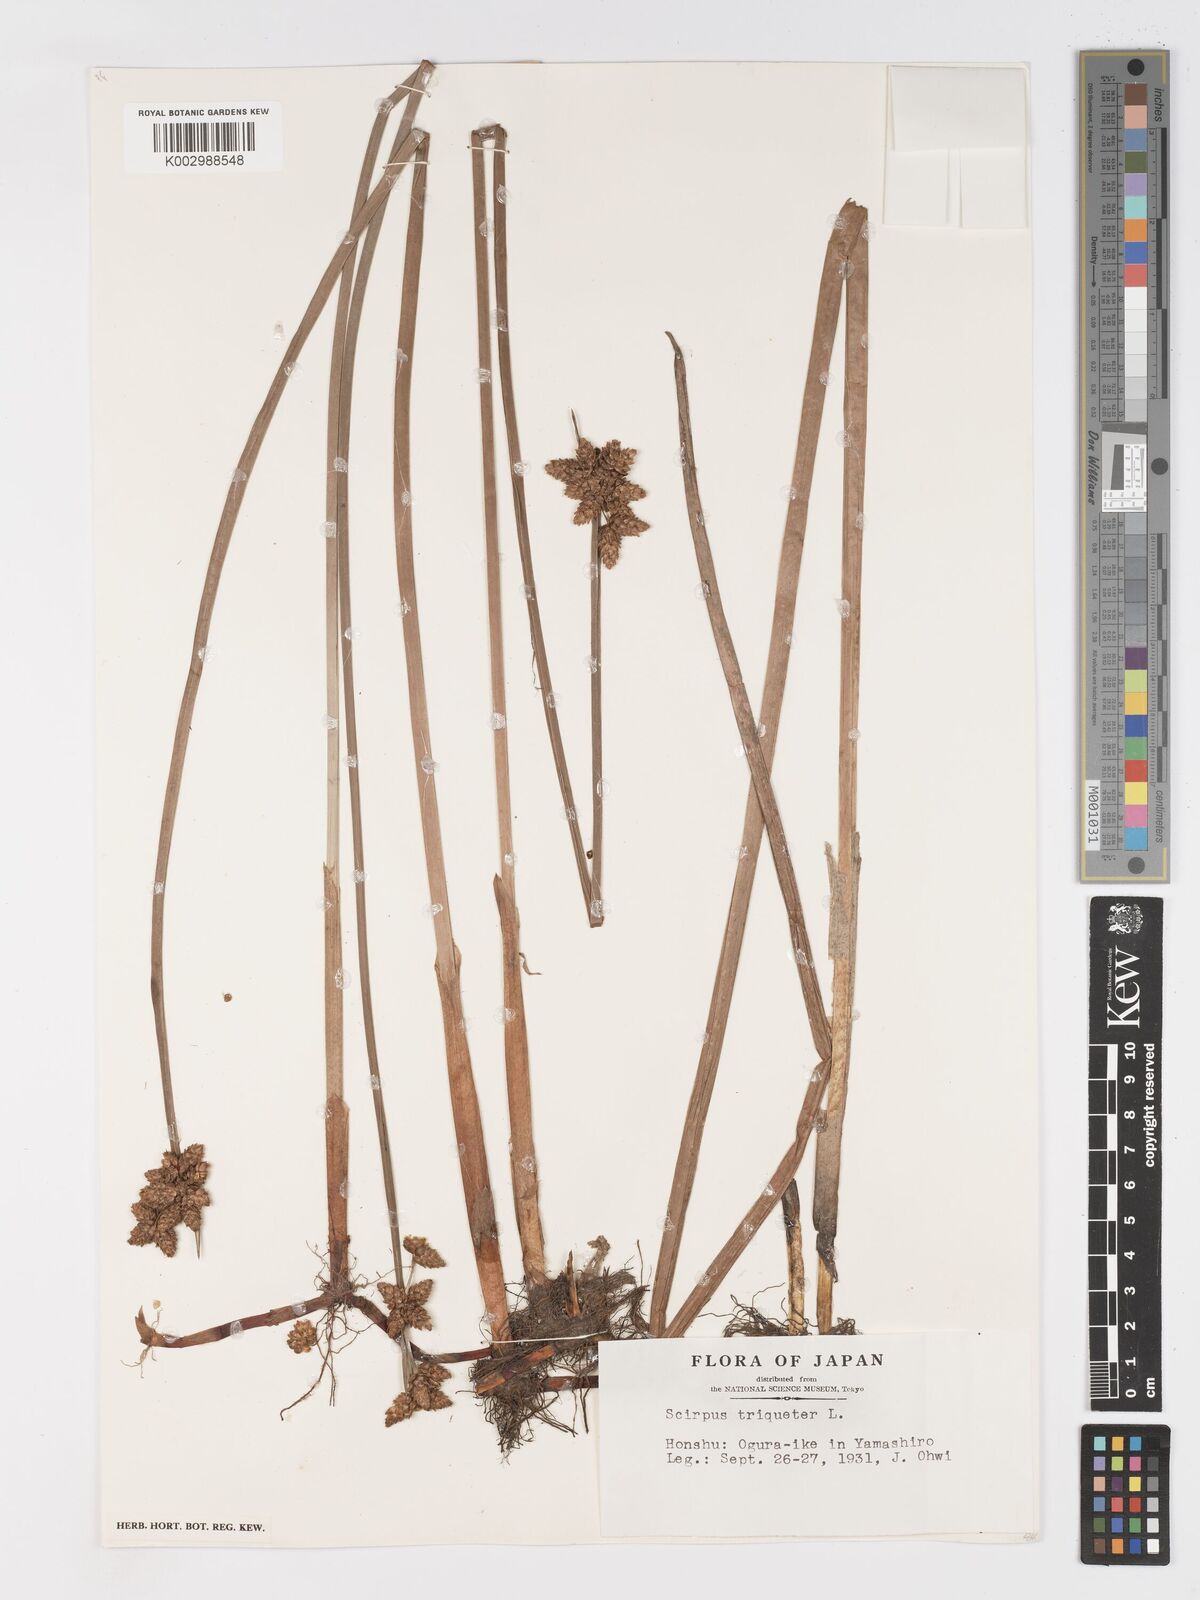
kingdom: Plantae
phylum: Tracheophyta
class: Liliopsida
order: Poales
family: Cyperaceae
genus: Schoenoplectus
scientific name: Schoenoplectus triqueter
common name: Triangular club-rush
